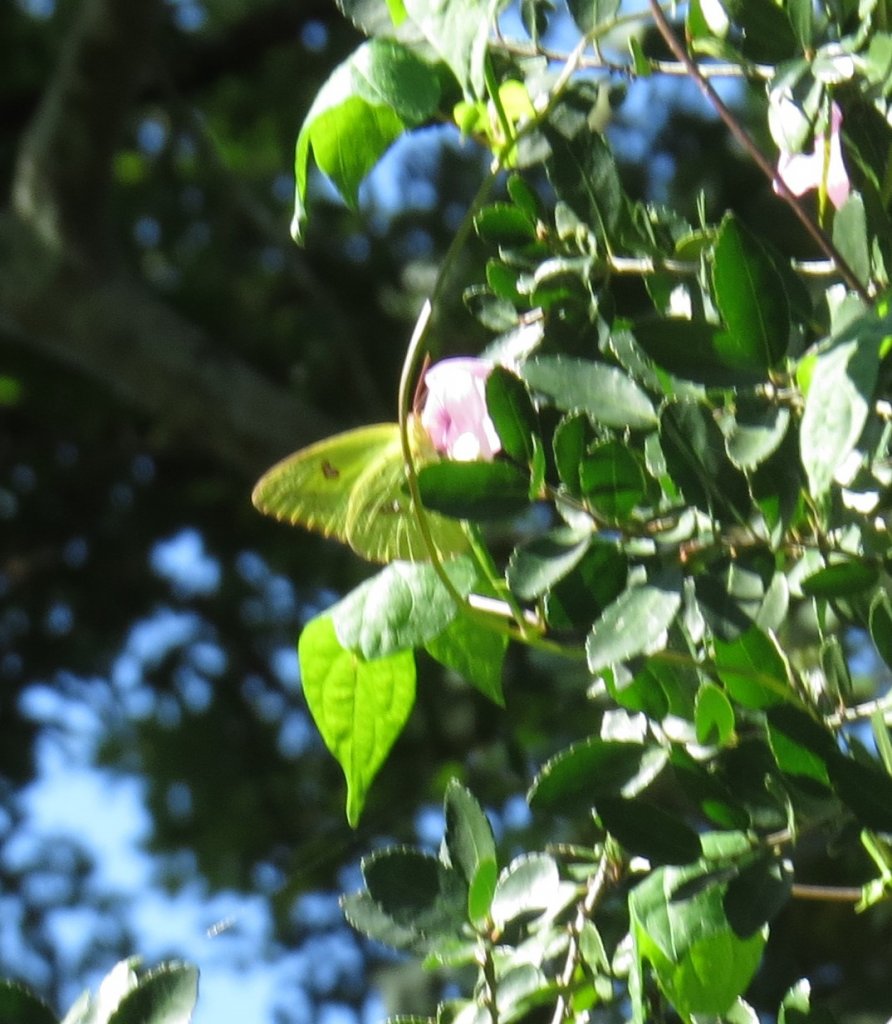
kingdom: Animalia
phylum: Arthropoda
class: Insecta
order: Lepidoptera
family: Pieridae
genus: Phoebis
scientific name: Phoebis sennae
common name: Cloudless Sulphur
